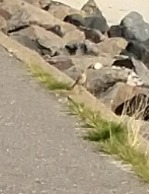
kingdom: Animalia
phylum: Chordata
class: Aves
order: Passeriformes
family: Muscicapidae
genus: Oenanthe
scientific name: Oenanthe oenanthe
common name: Stenpikker
